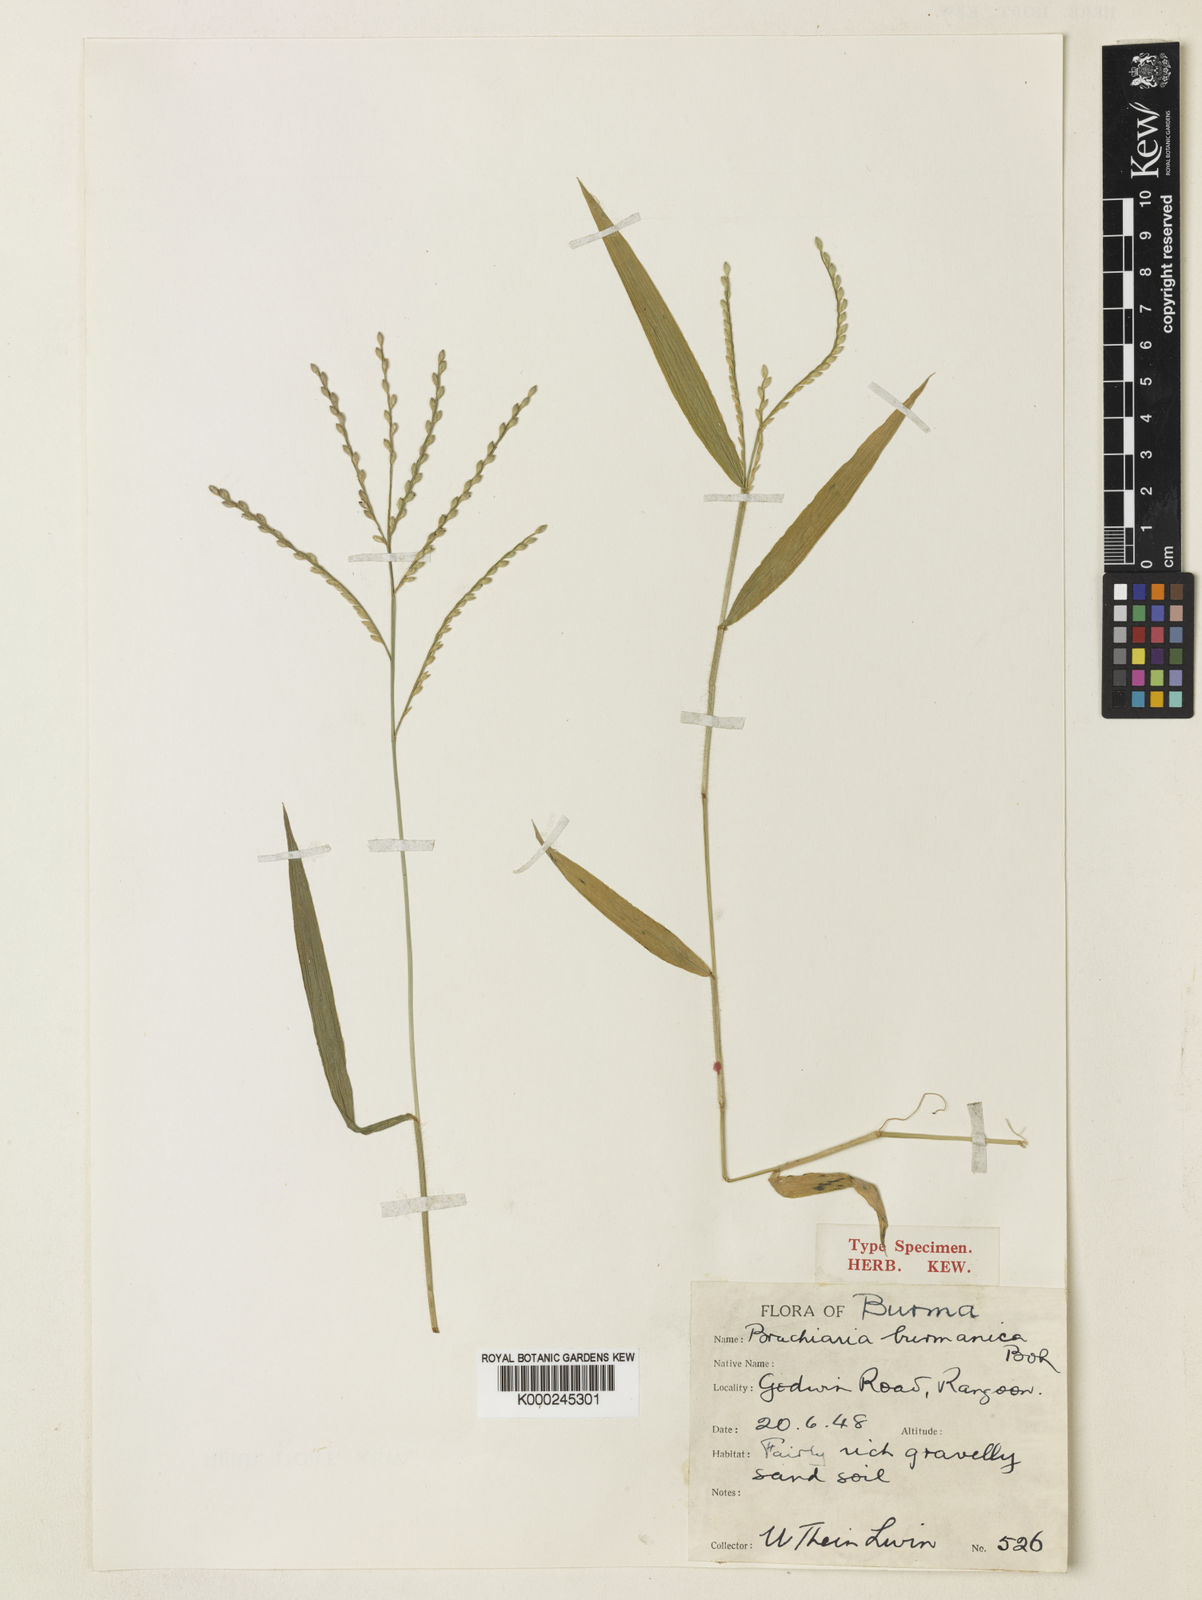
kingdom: Plantae
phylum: Tracheophyta
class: Liliopsida
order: Poales
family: Poaceae
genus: Urochloa
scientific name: Urochloa burmanica
